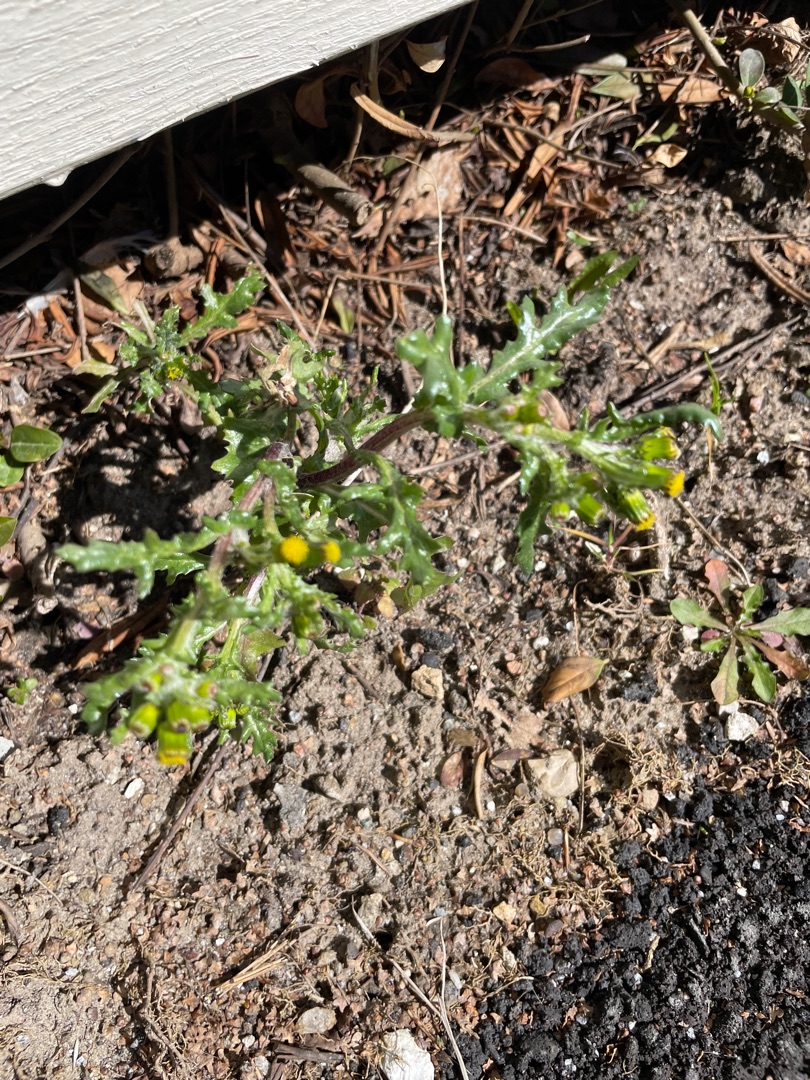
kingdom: Plantae
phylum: Tracheophyta
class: Magnoliopsida
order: Asterales
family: Asteraceae
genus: Senecio
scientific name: Senecio vulgaris
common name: Almindelig brandbæger
